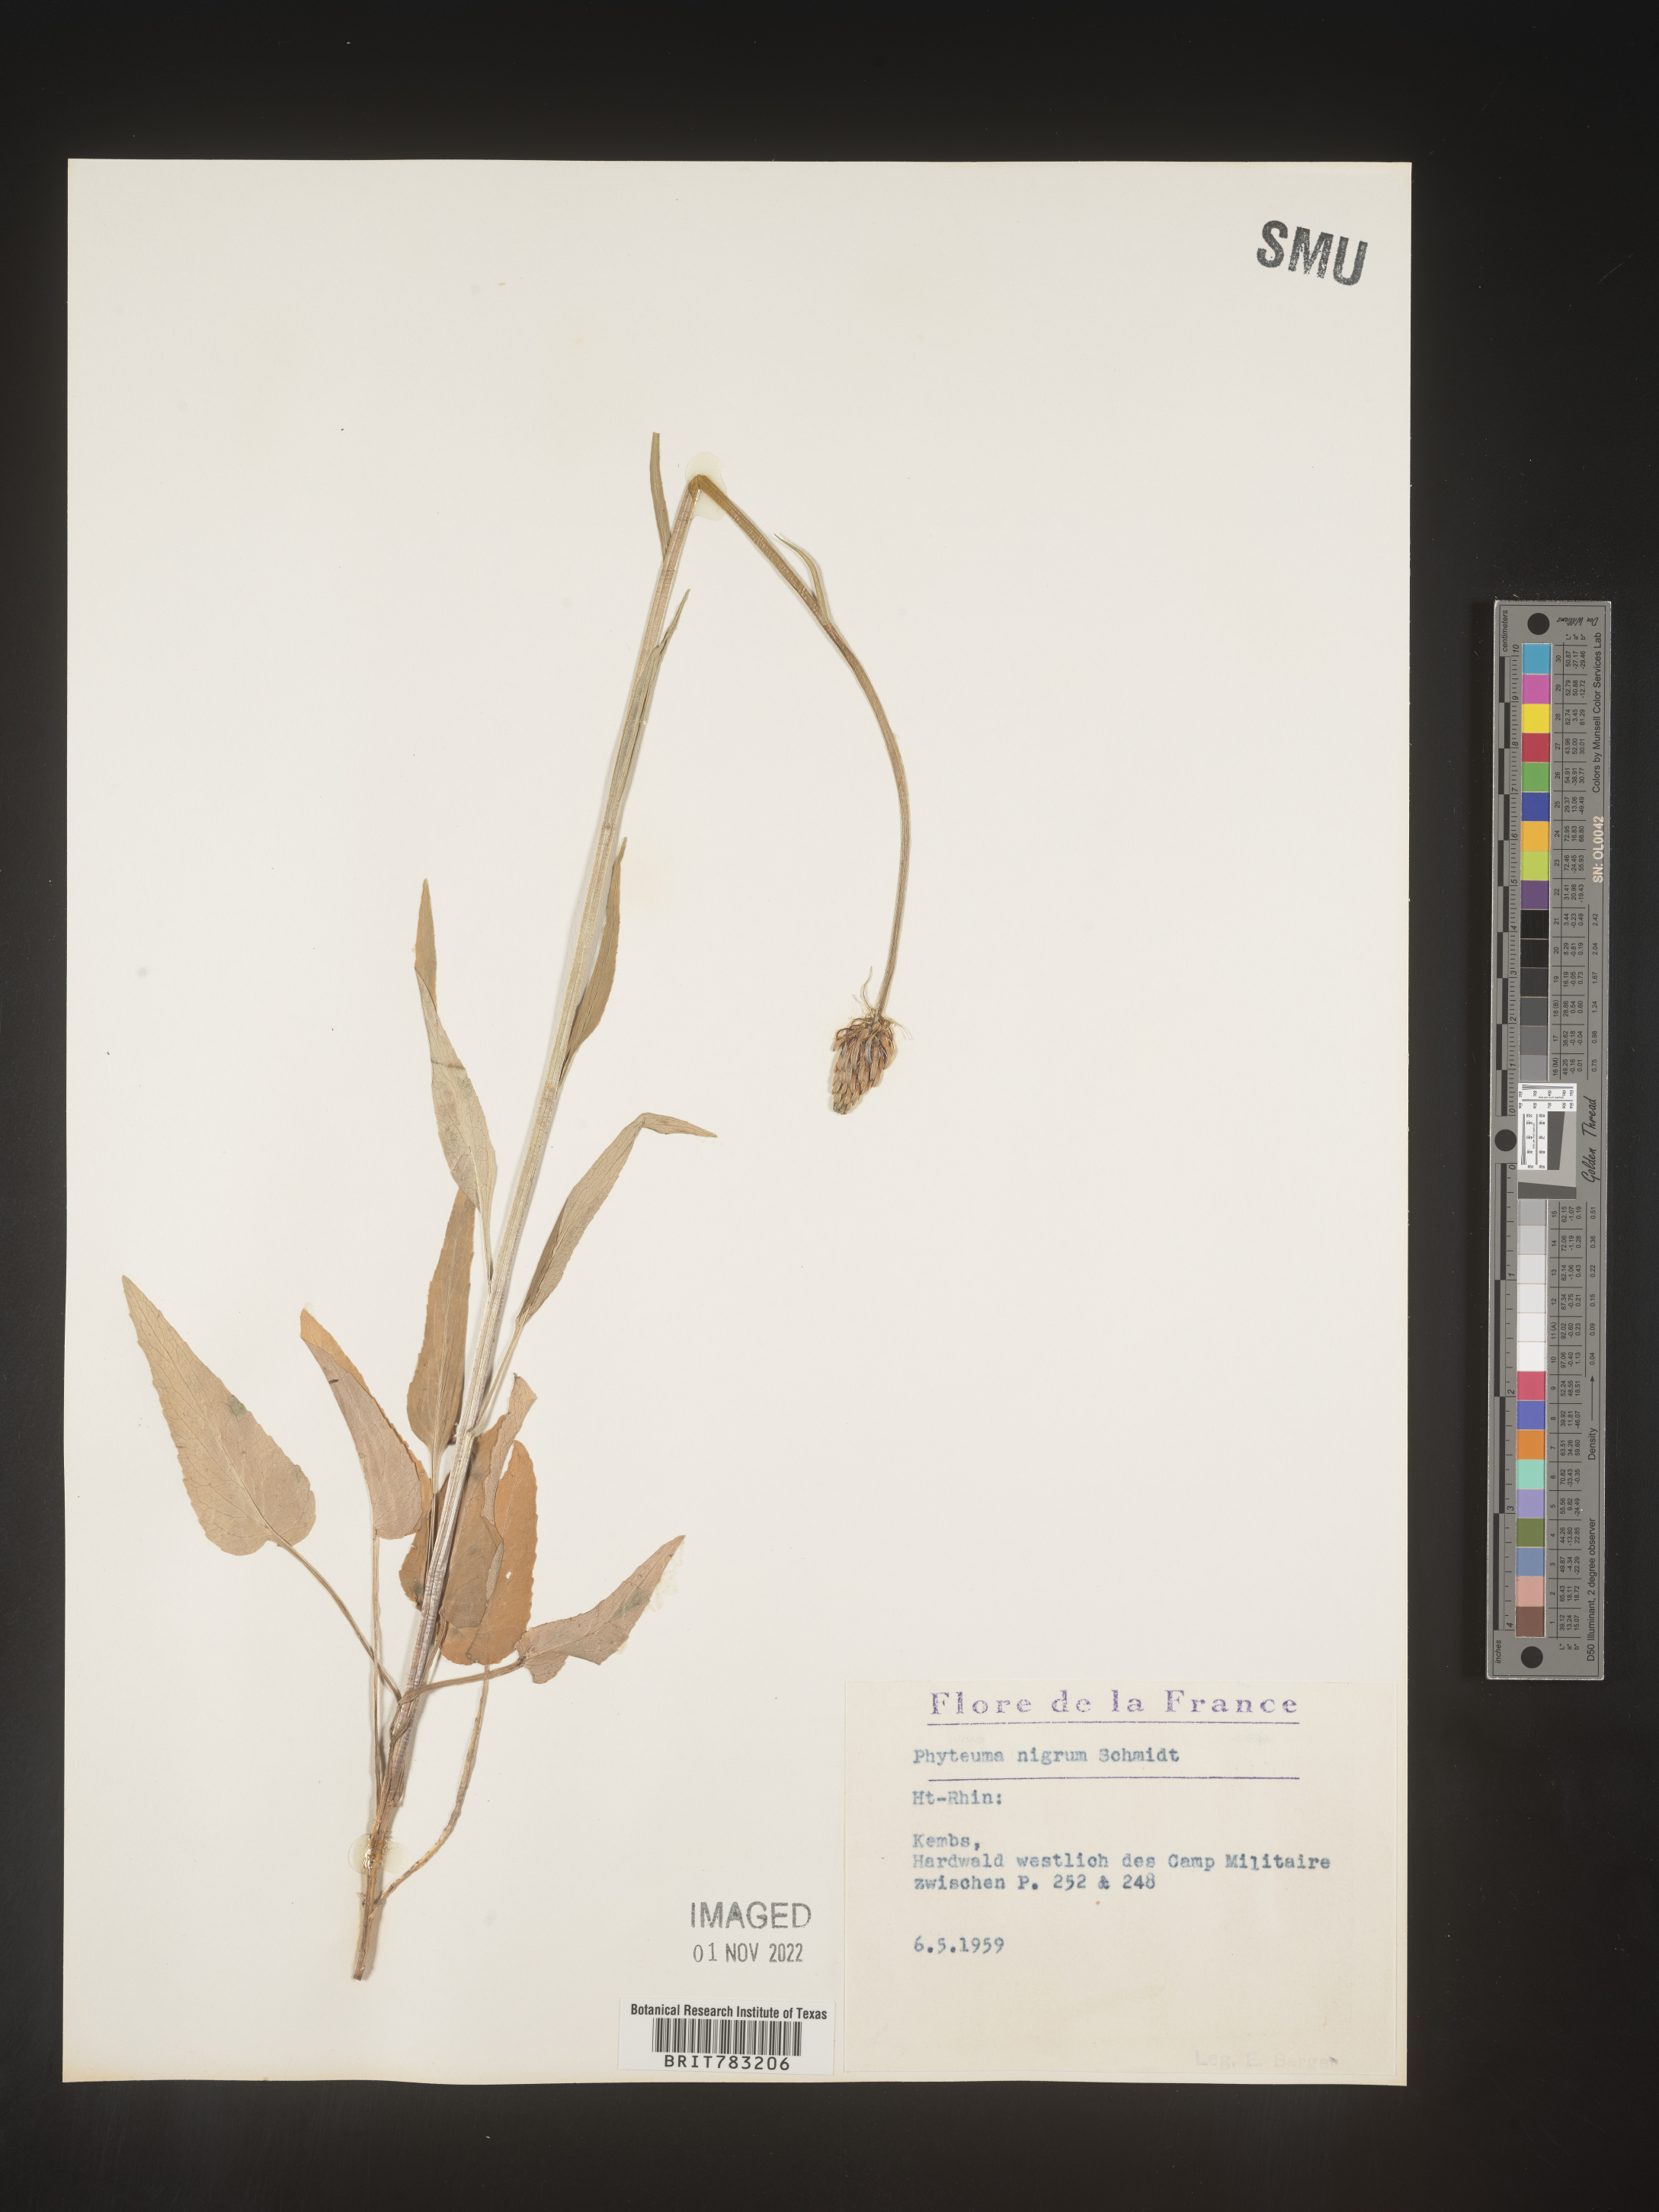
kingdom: Plantae
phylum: Tracheophyta
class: Magnoliopsida
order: Asterales
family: Campanulaceae
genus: Phyteuma
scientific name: Phyteuma
